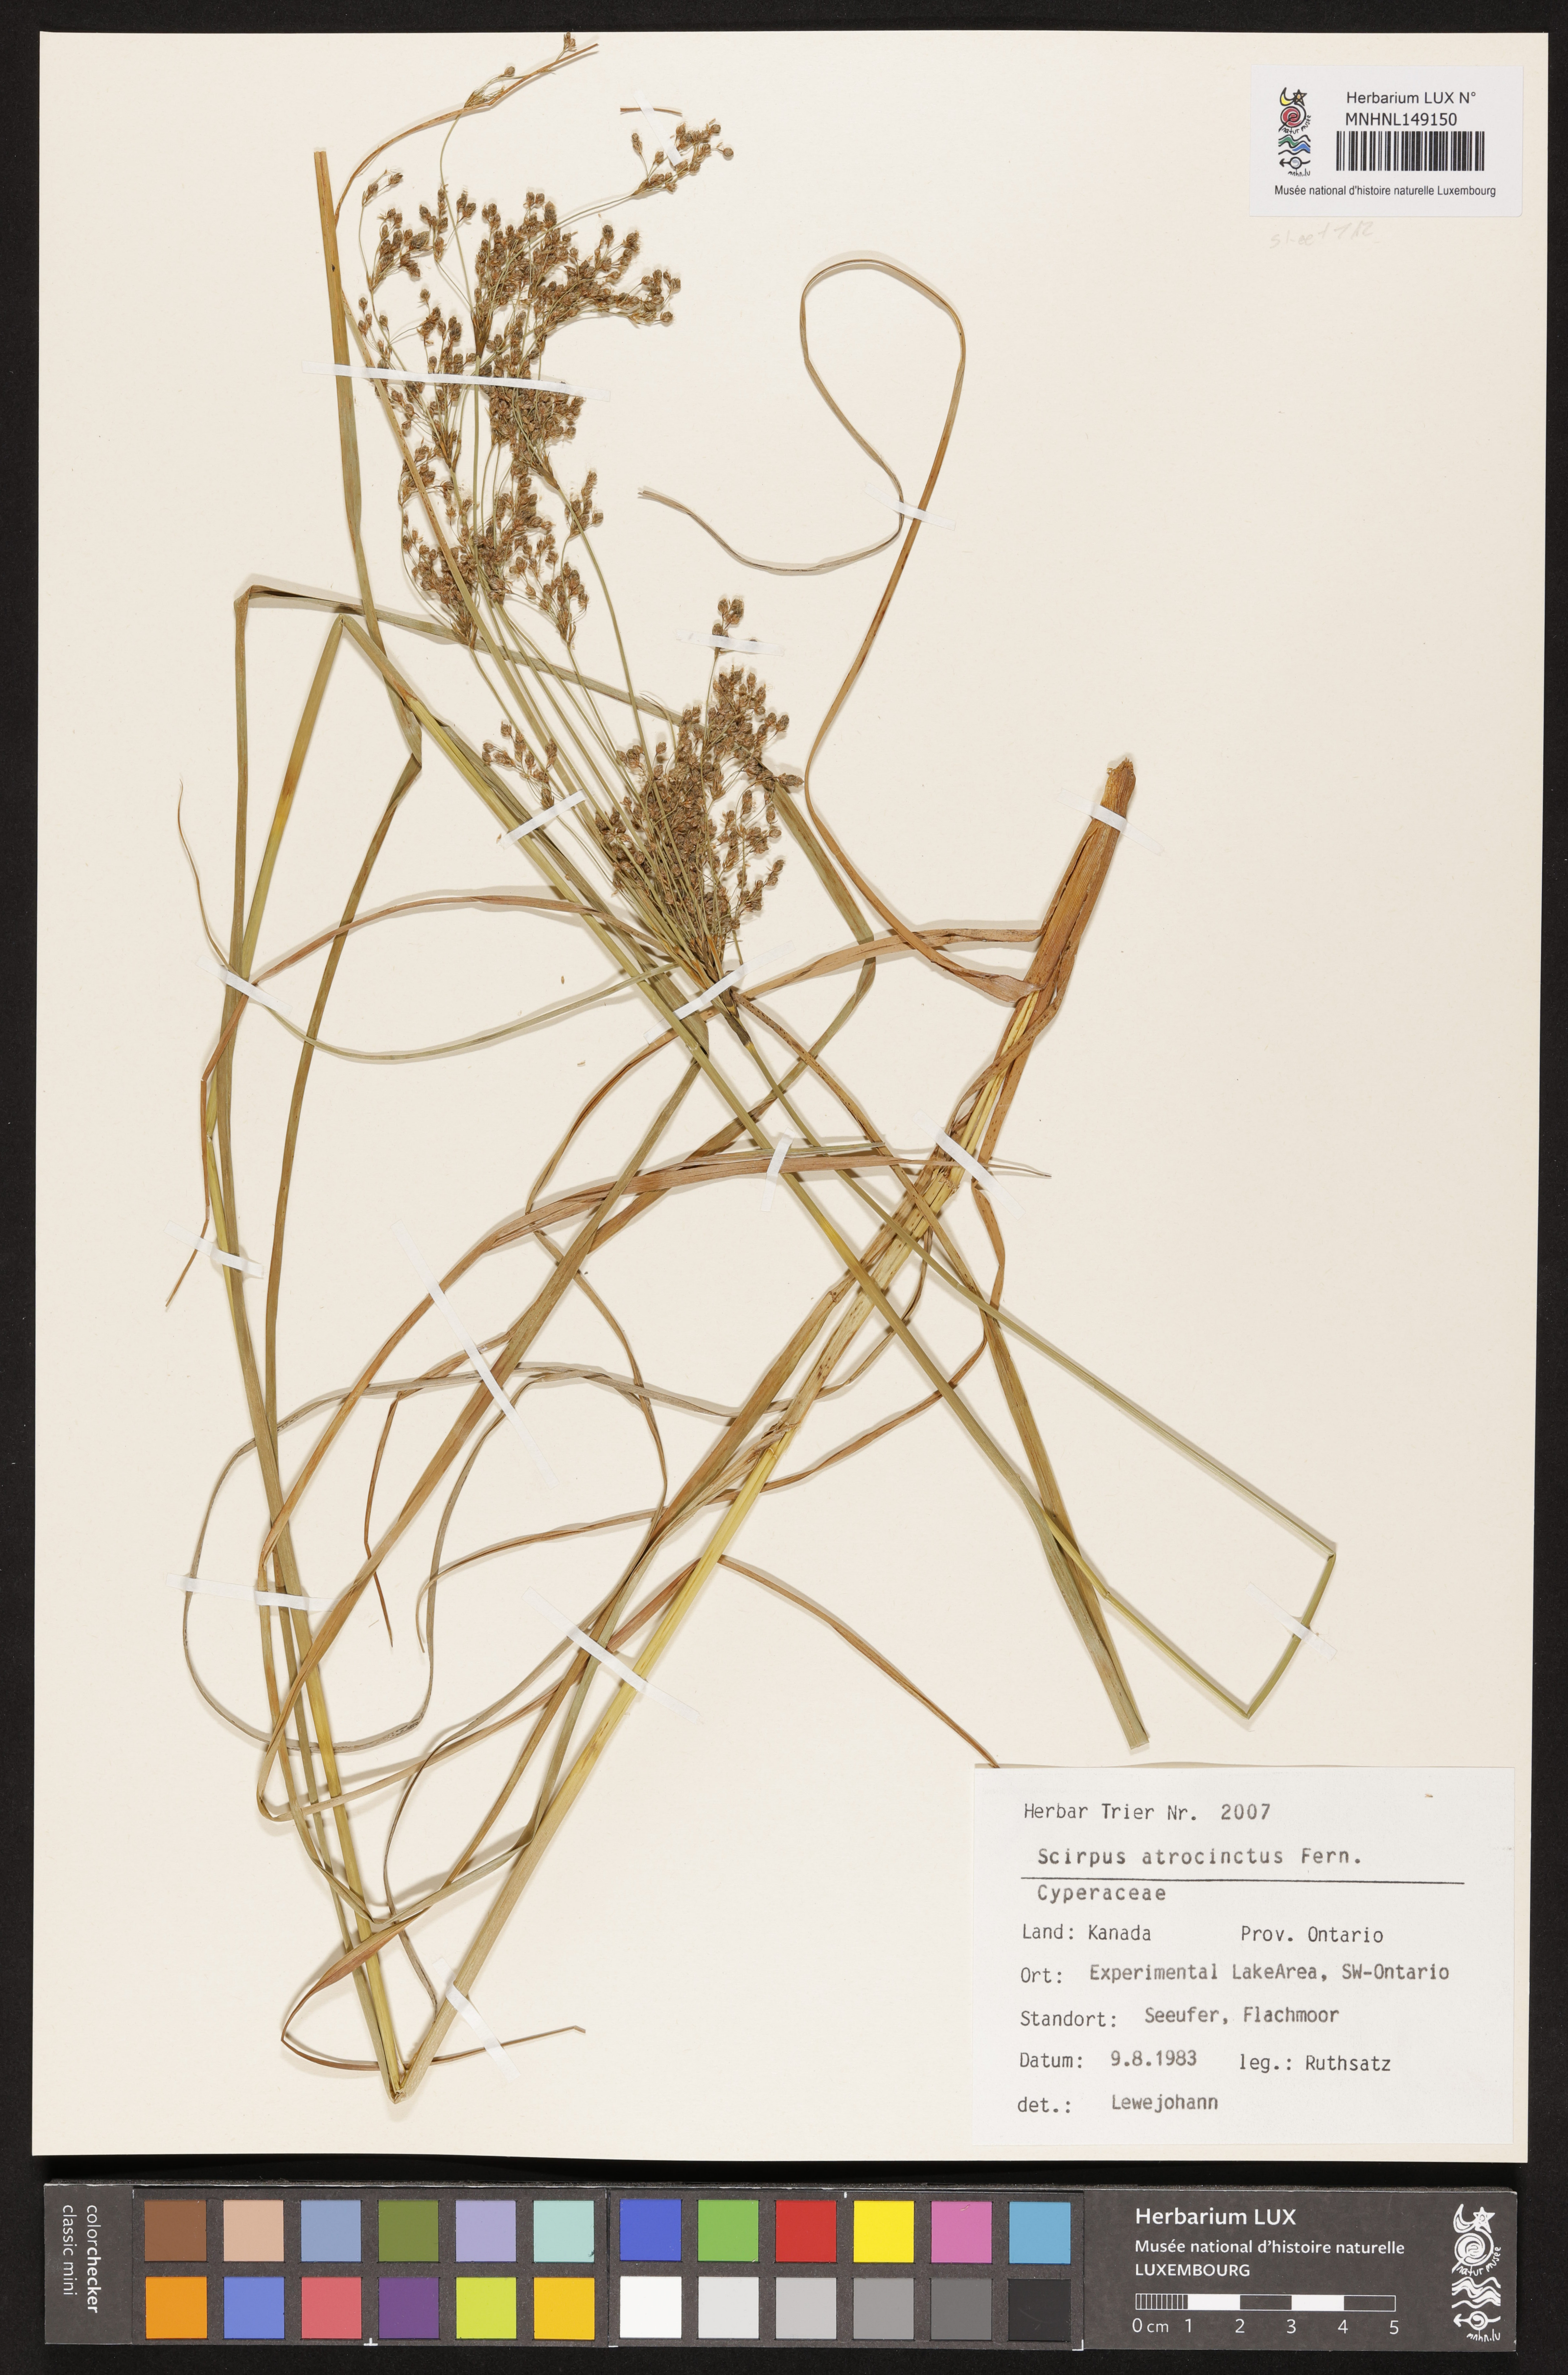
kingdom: Plantae
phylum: Tracheophyta
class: Liliopsida
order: Poales
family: Cyperaceae
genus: Scirpus
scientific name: Scirpus atrocinctus
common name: Black-girdled bulrush
